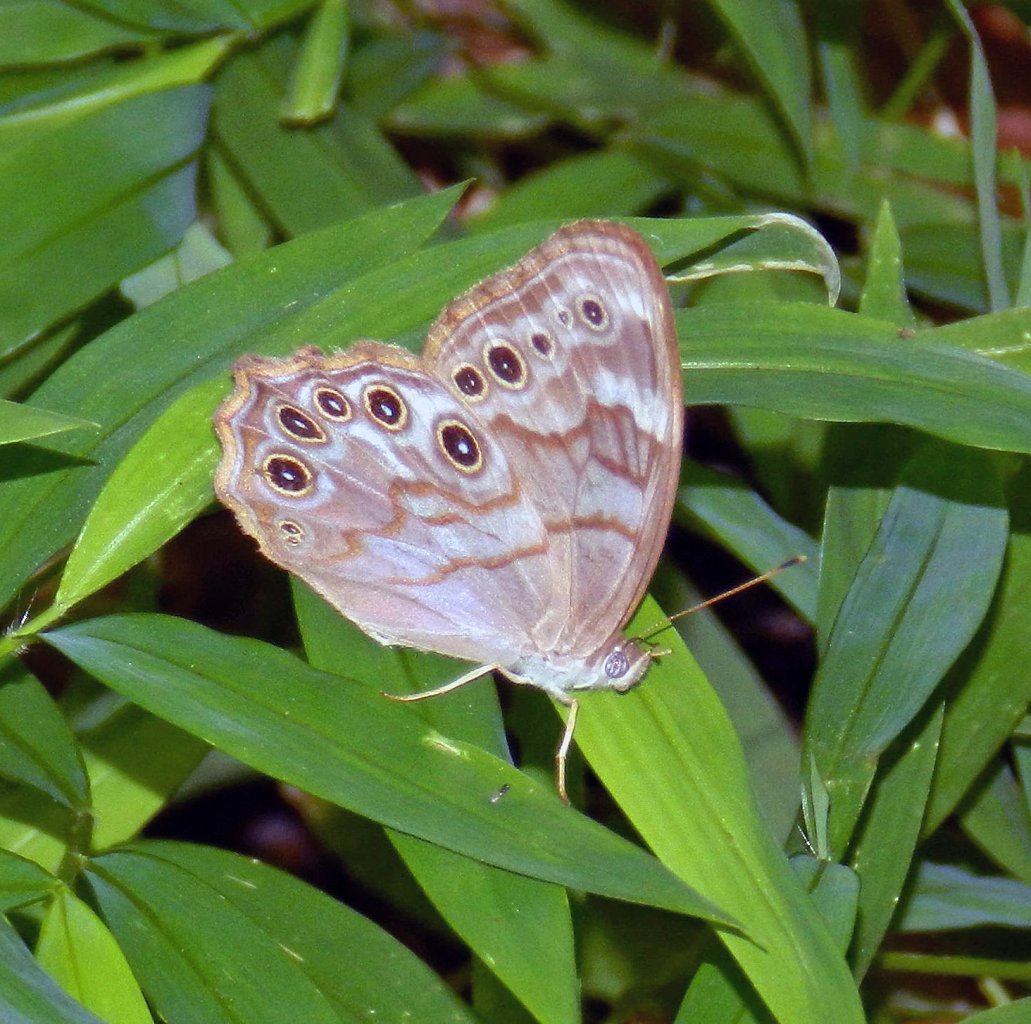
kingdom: Animalia
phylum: Arthropoda
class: Insecta
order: Lepidoptera
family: Nymphalidae
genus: Lethe
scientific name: Lethe creola
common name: Creole Pearly-Eye
